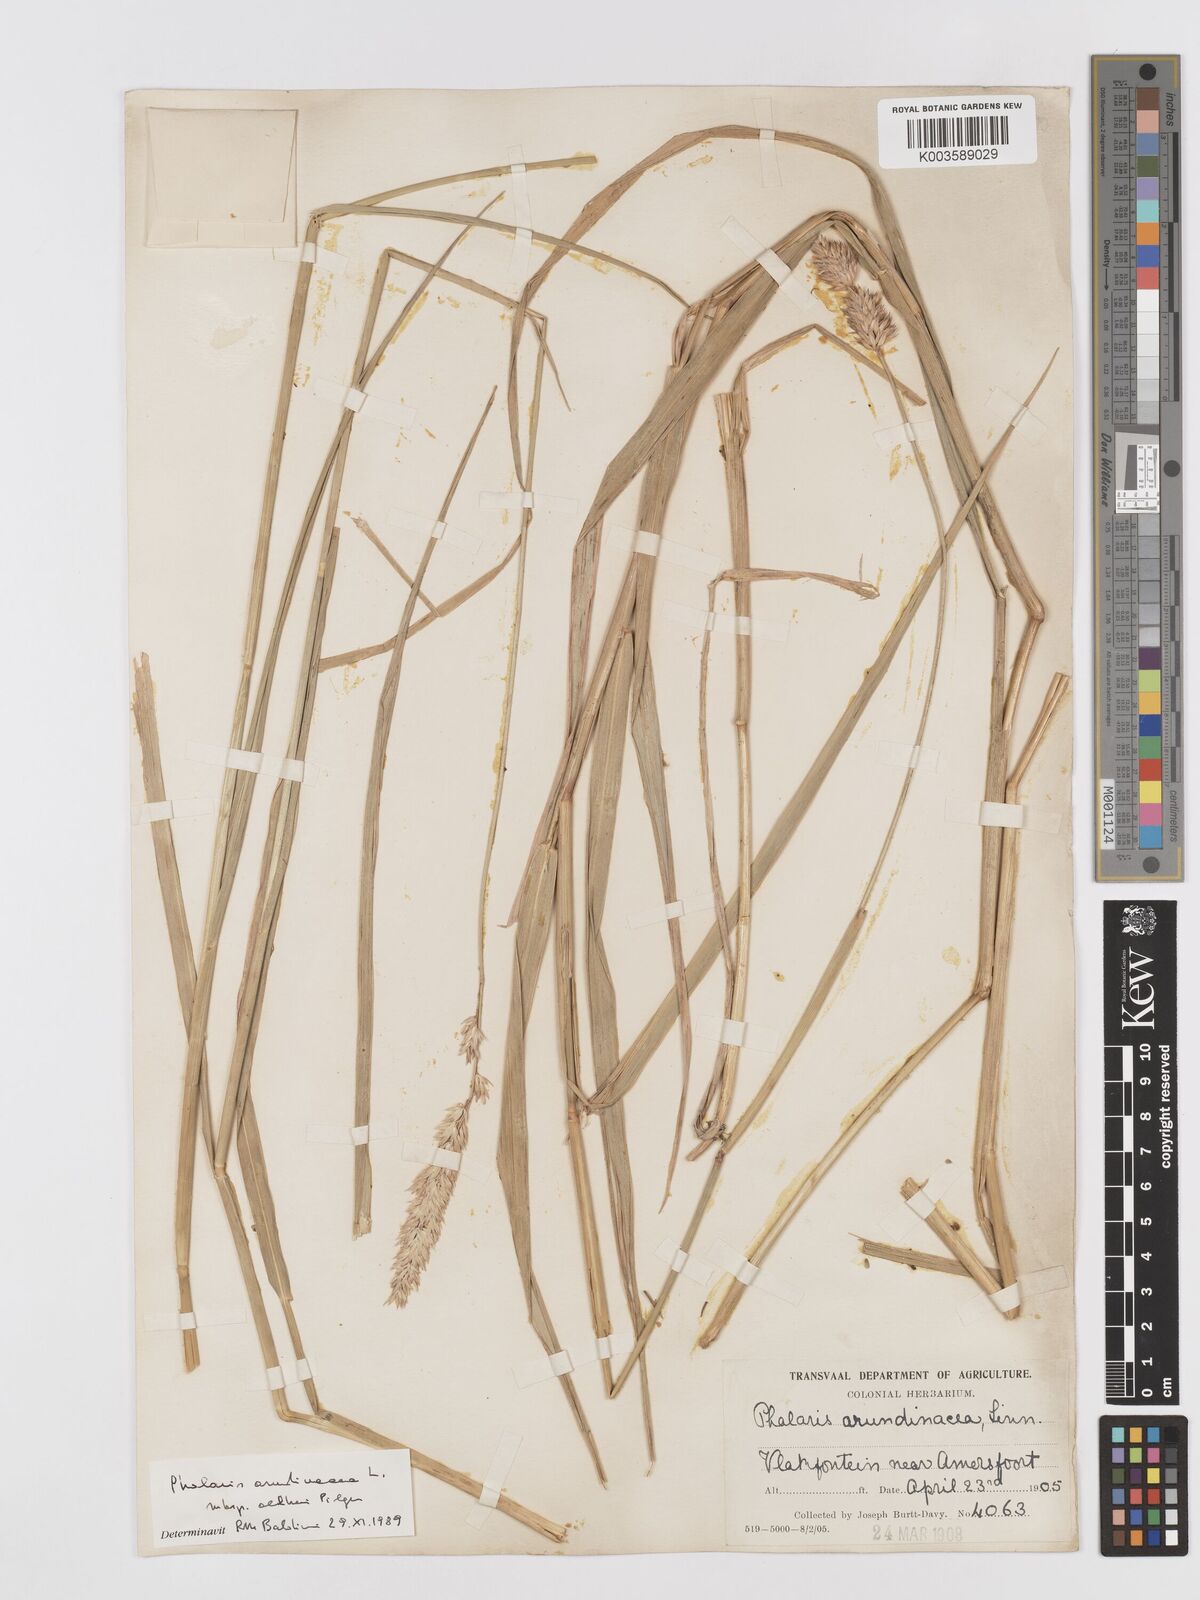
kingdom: Plantae
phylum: Tracheophyta
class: Liliopsida
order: Poales
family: Poaceae
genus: Phalaris
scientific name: Phalaris arundinacea
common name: Reed canary-grass
